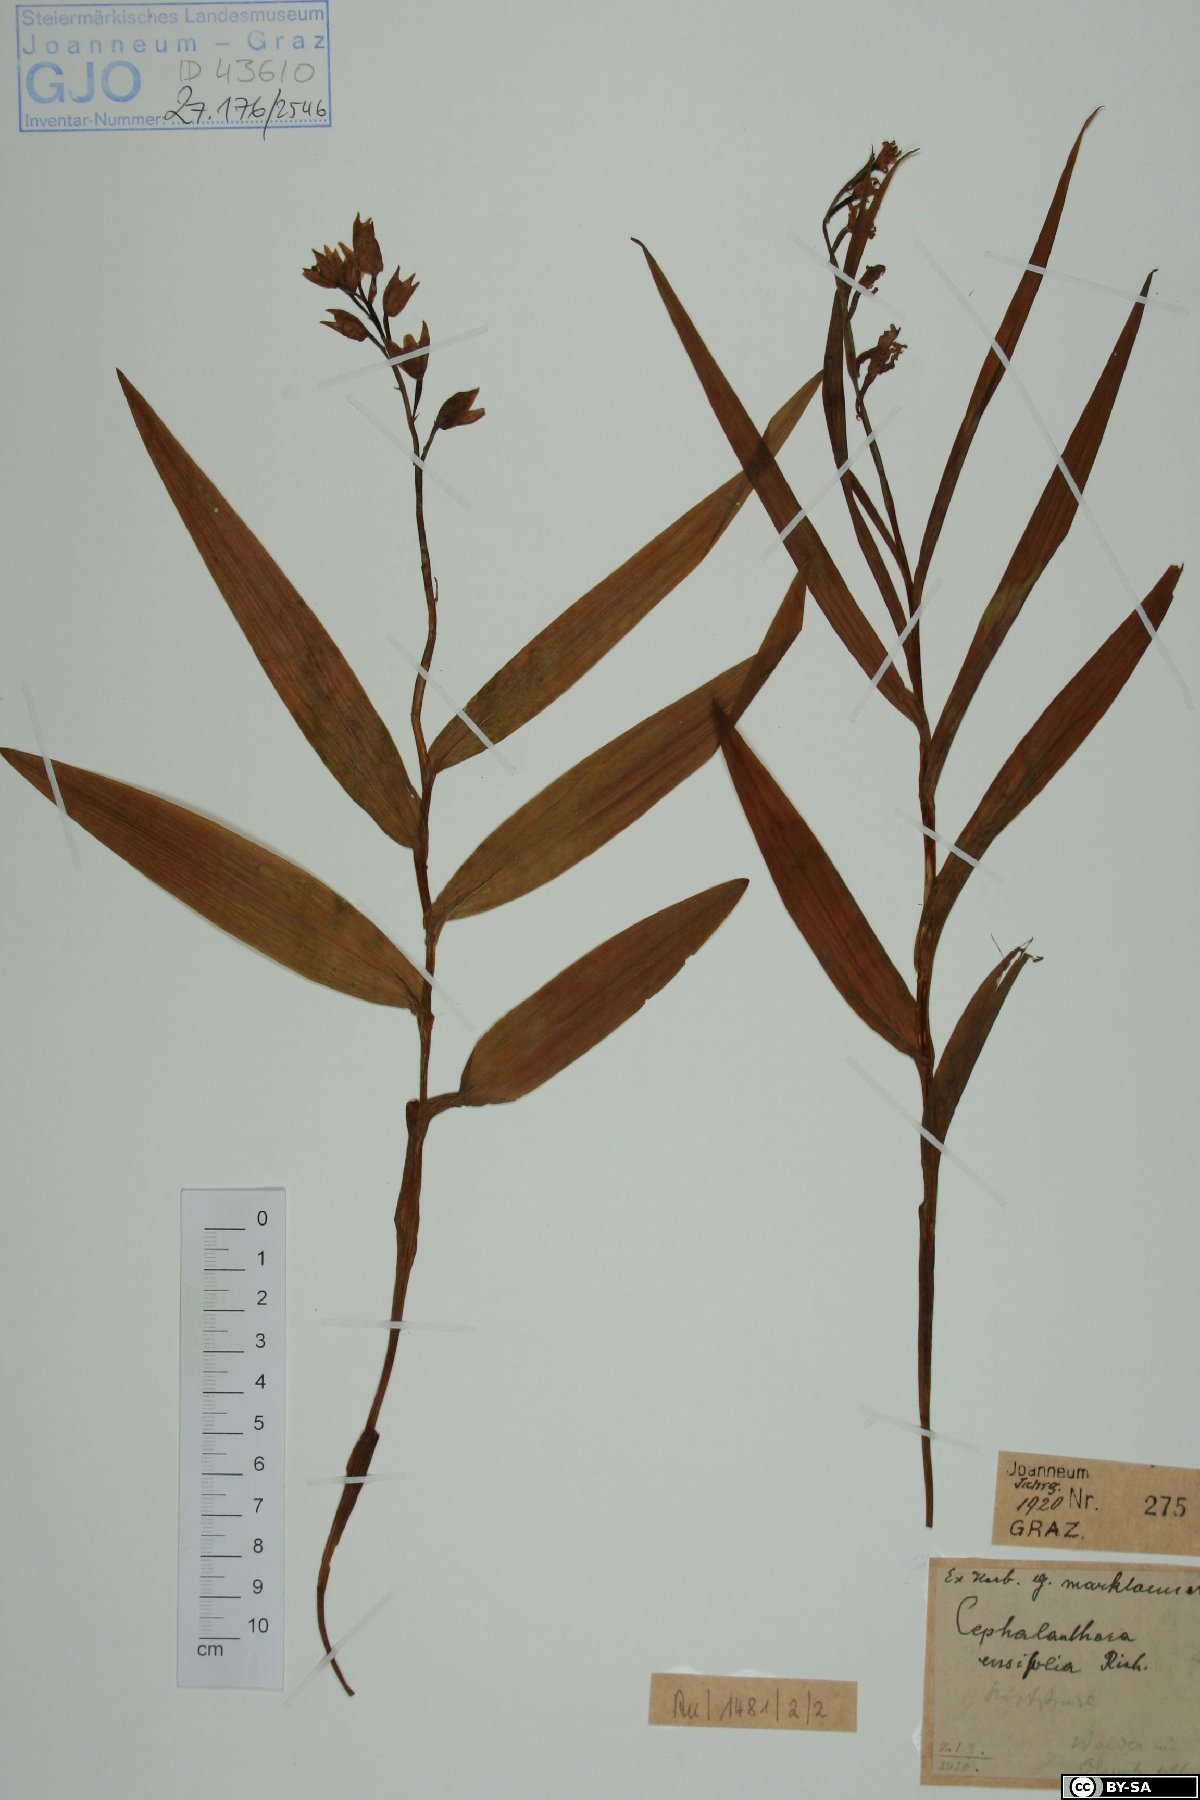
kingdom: Plantae
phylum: Tracheophyta
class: Liliopsida
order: Asparagales
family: Orchidaceae
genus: Cephalanthera
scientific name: Cephalanthera longifolia
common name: Narrow-leaved helleborine
